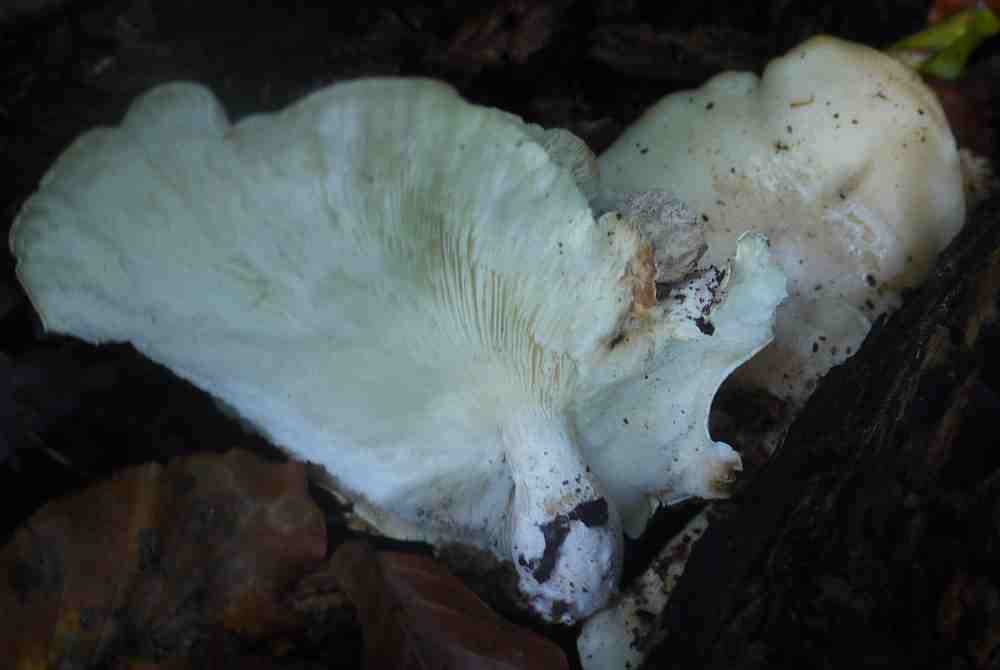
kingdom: Fungi
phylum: Basidiomycota
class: Agaricomycetes
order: Agaricales
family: Lyophyllaceae
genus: Ossicaulis
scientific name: Ossicaulis lignatilis
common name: hvidlig vedtragthat
